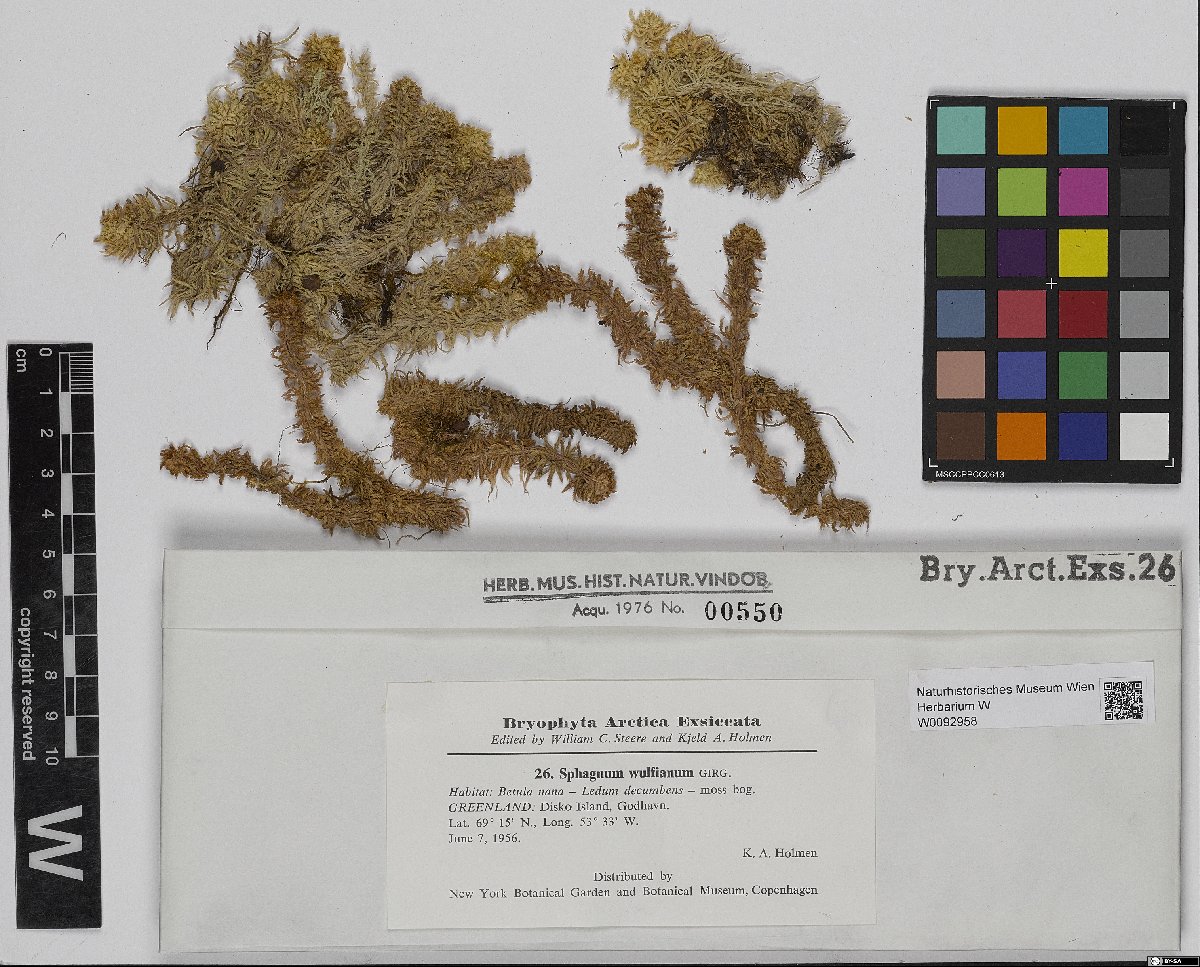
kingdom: Plantae
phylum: Bryophyta
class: Sphagnopsida
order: Sphagnales
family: Sphagnaceae
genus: Sphagnum
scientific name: Sphagnum wulfianum
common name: Wulf's peat moss
